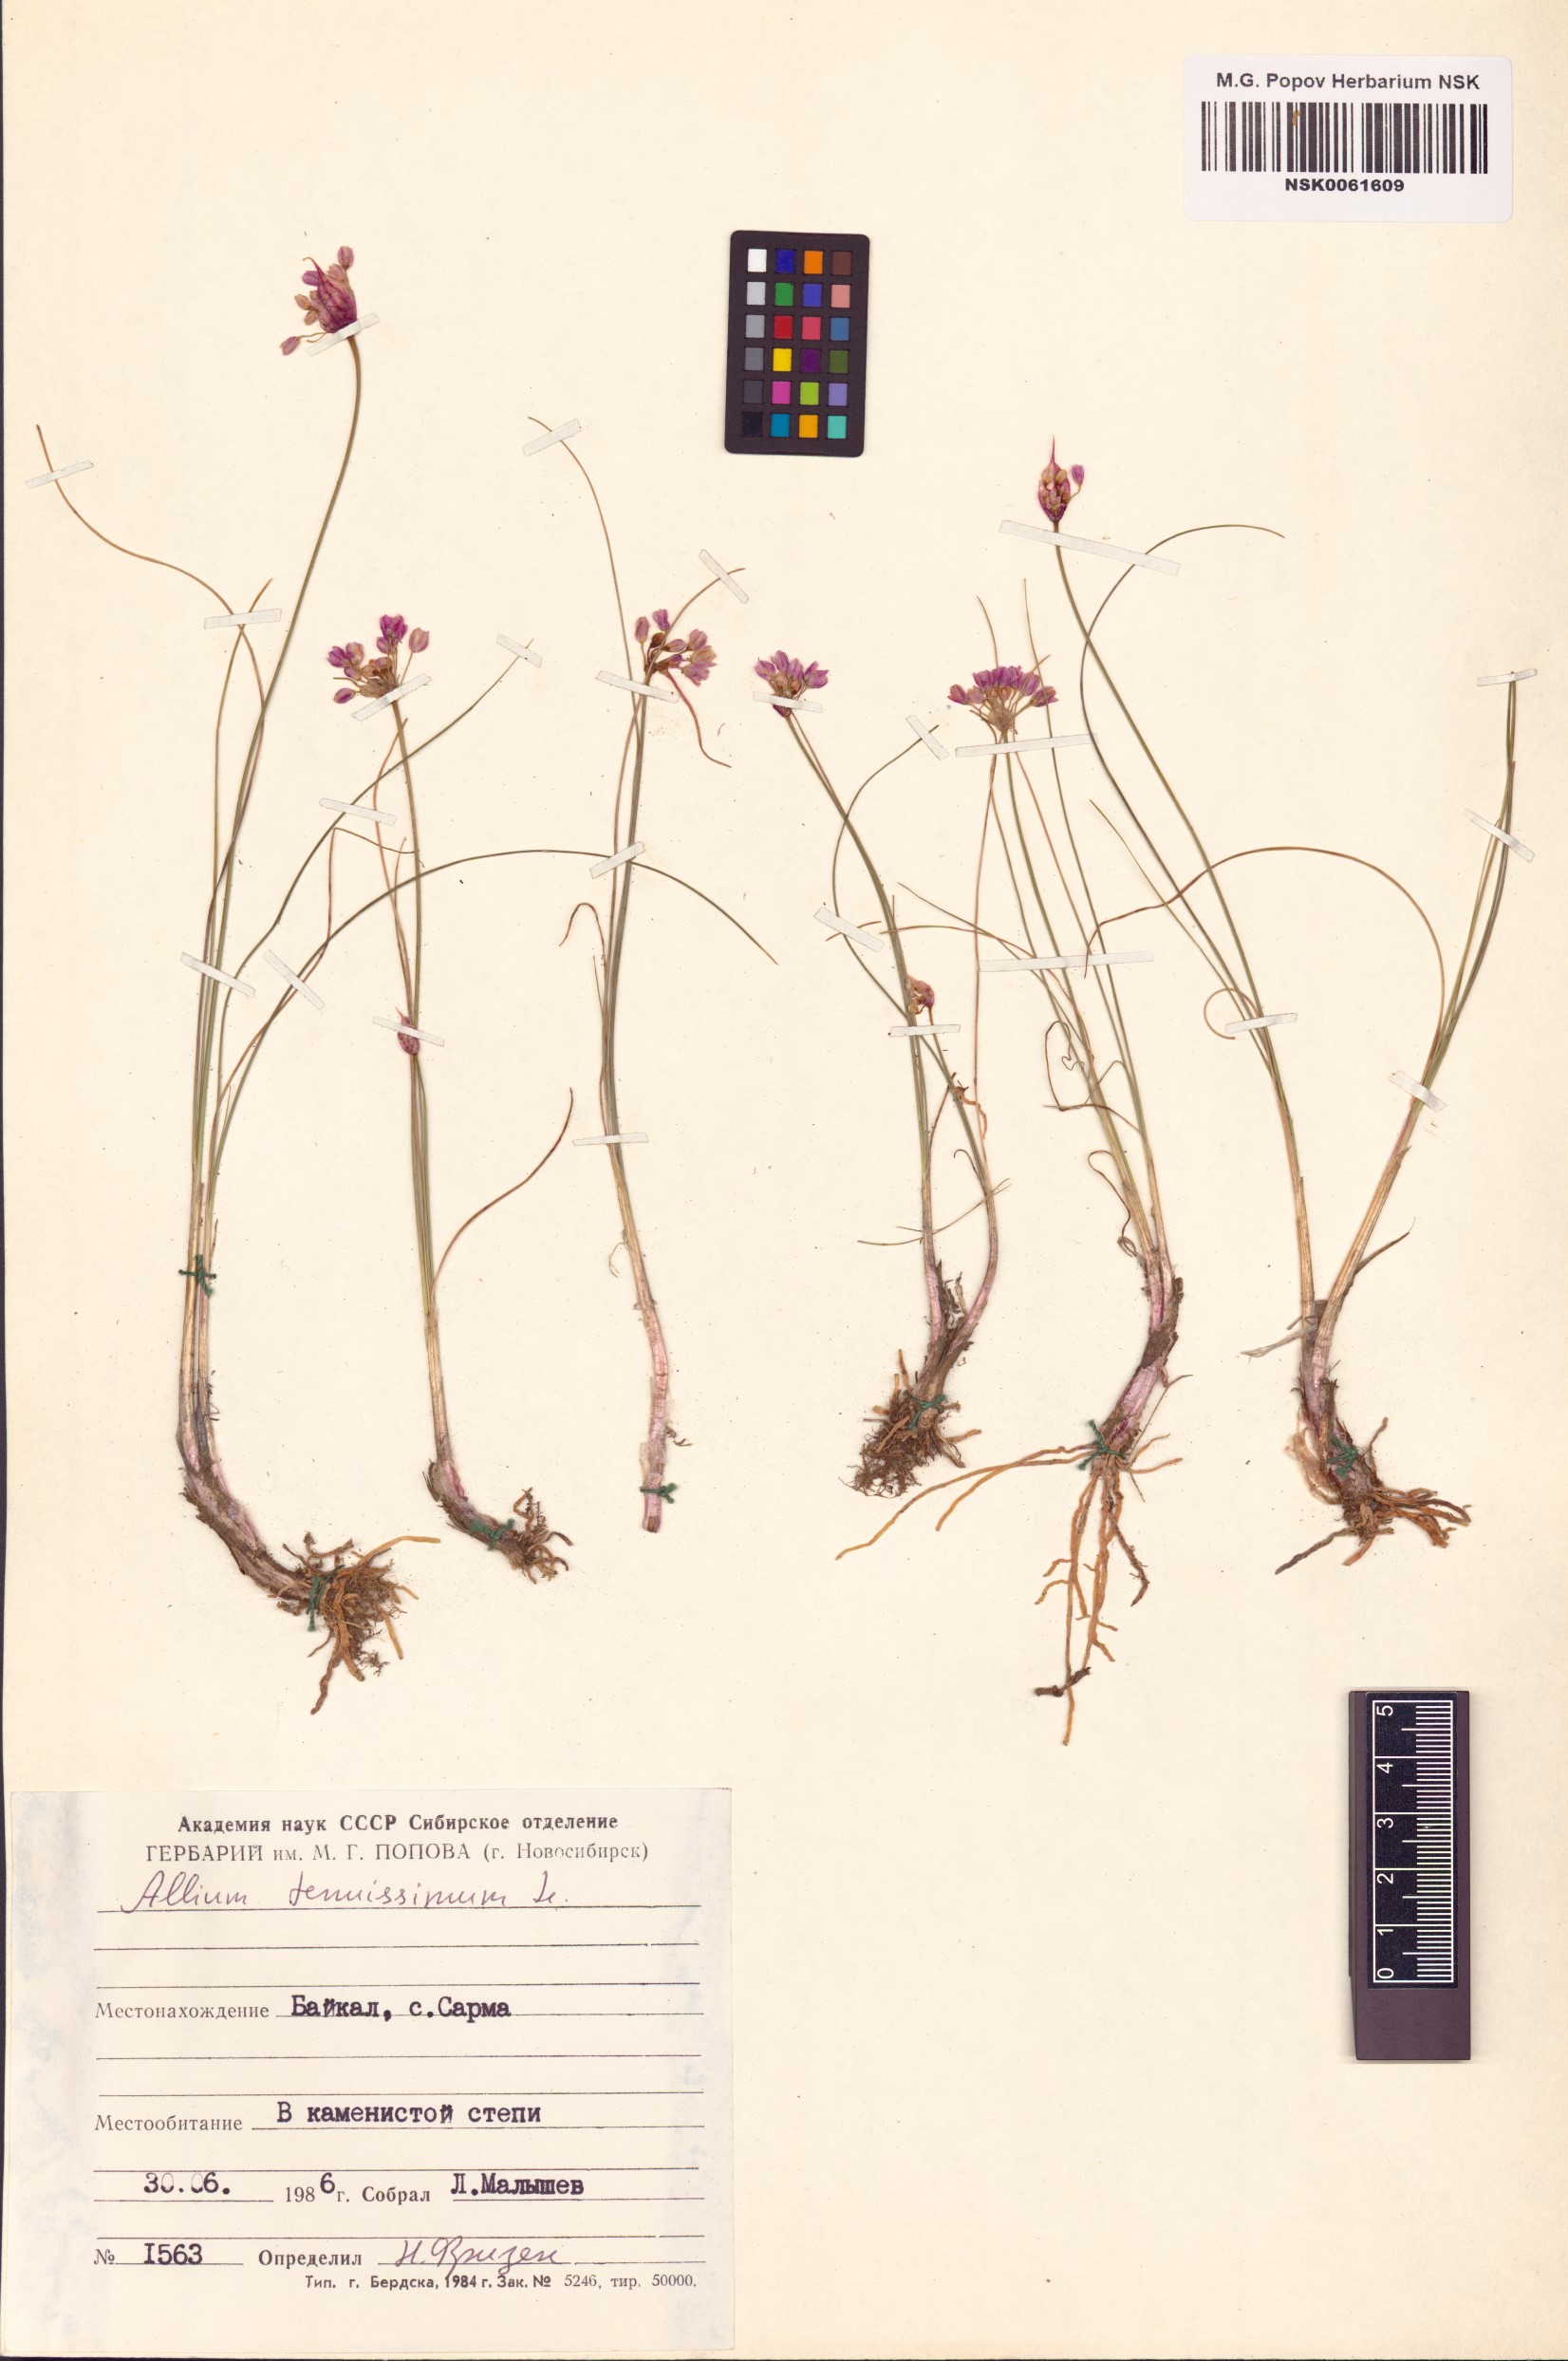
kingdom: Plantae
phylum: Tracheophyta
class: Liliopsida
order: Asparagales
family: Amaryllidaceae
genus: Allium
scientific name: Allium tenuissimum
